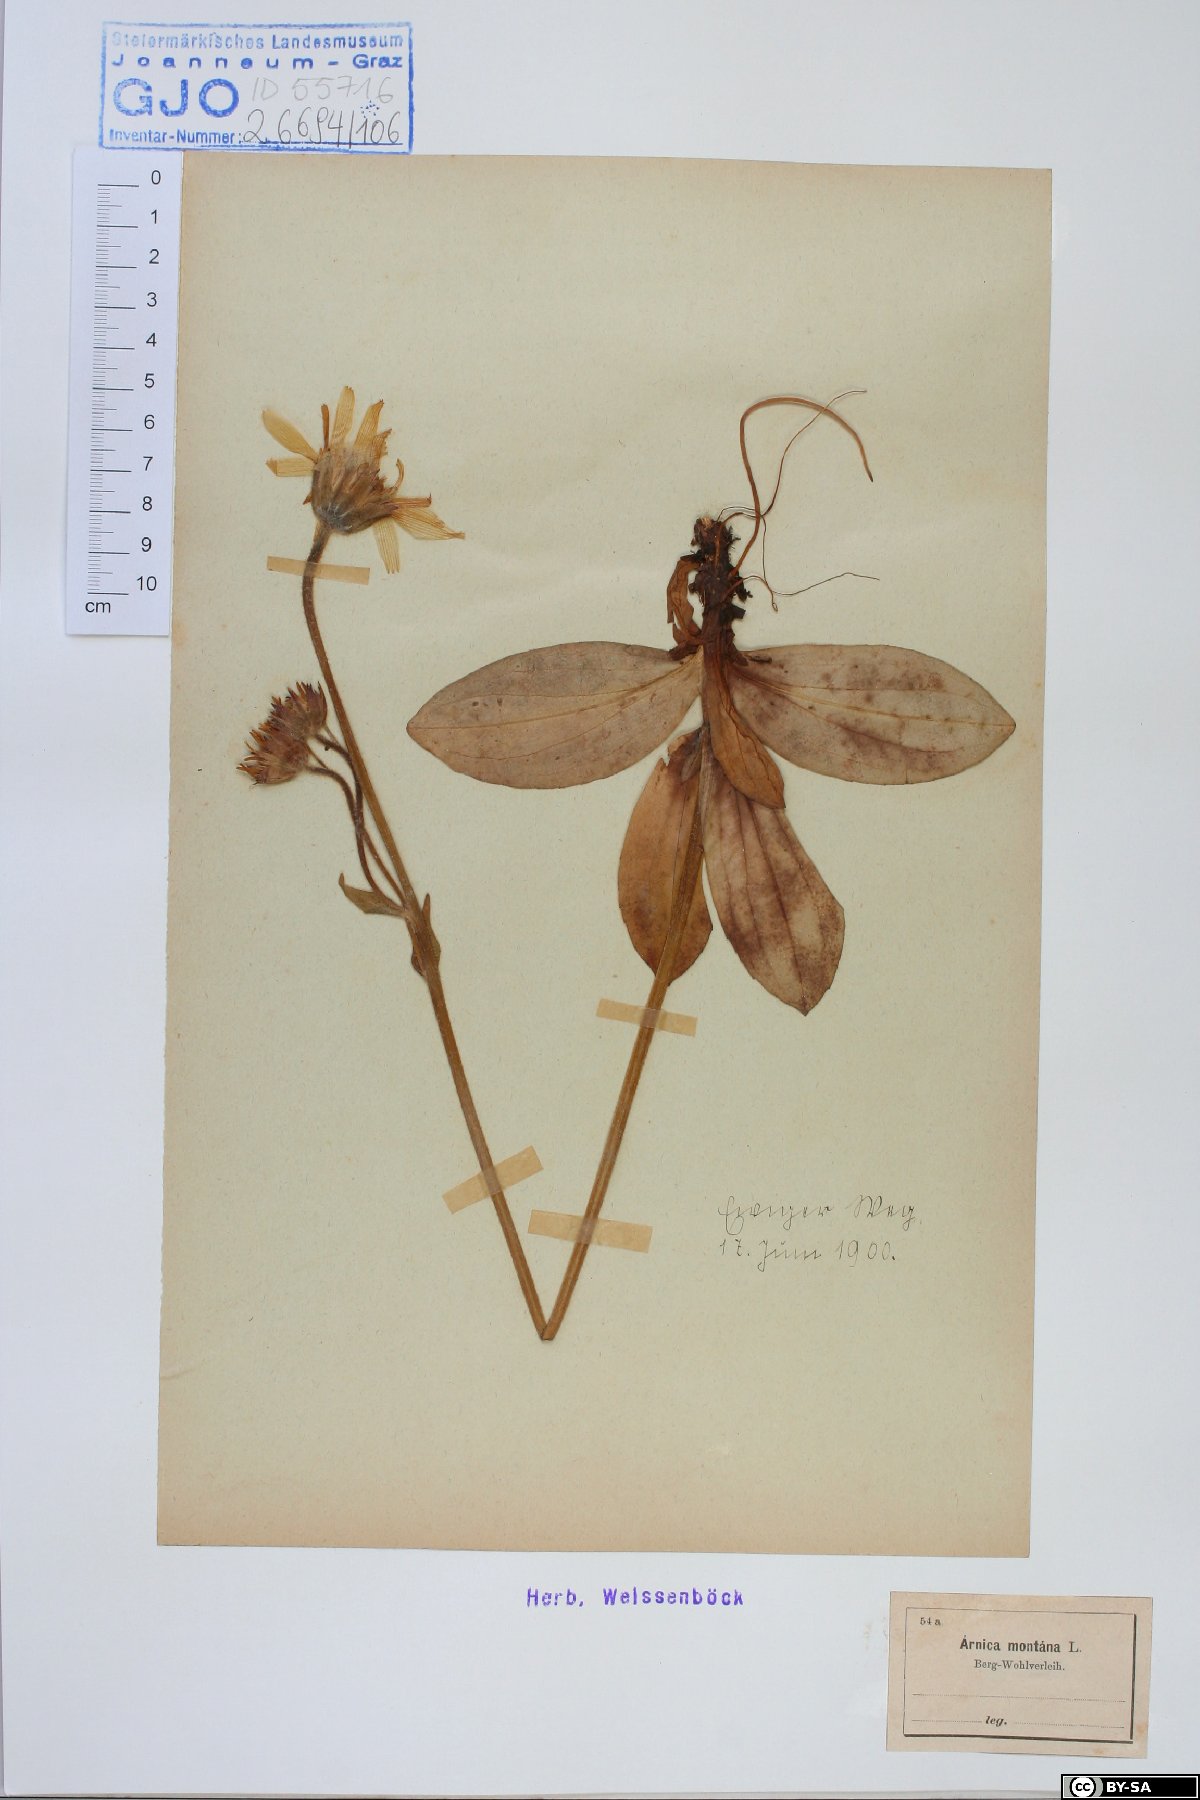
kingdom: Plantae
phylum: Tracheophyta
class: Magnoliopsida
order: Asterales
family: Asteraceae
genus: Arnica
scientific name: Arnica montana
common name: Leopard's bane
